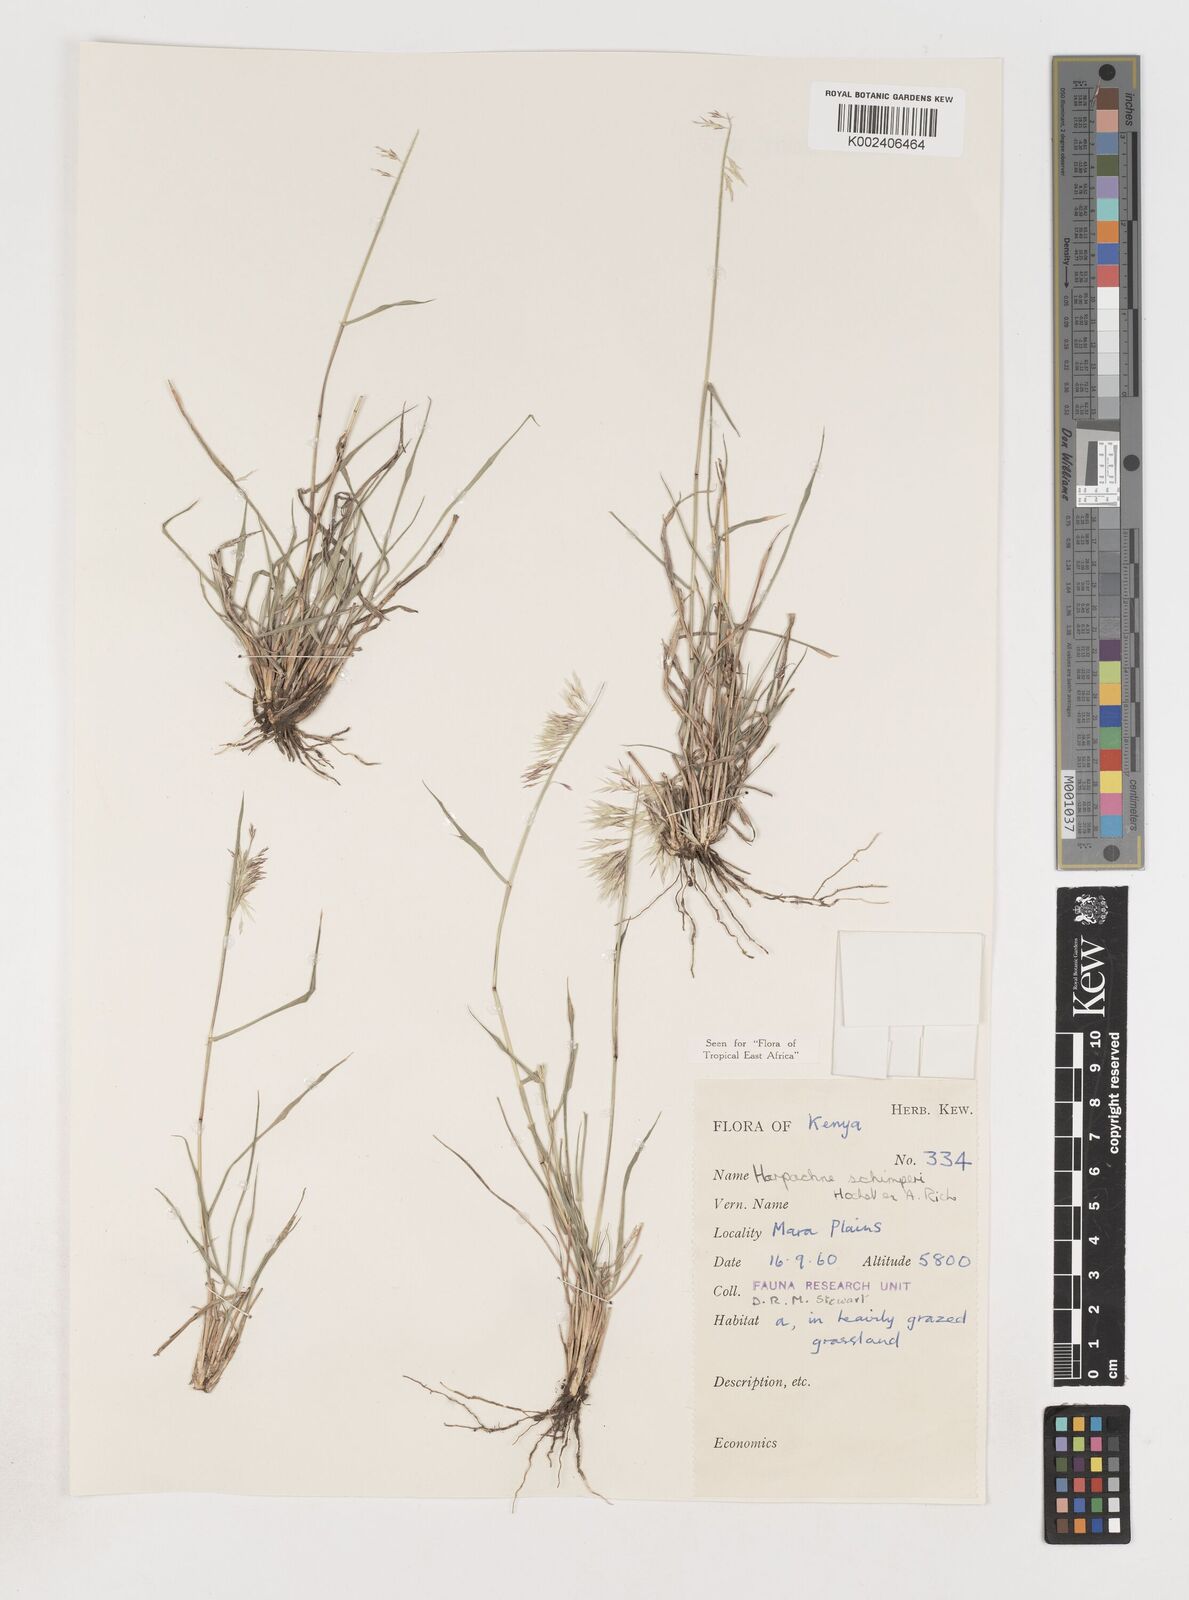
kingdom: Plantae
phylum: Tracheophyta
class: Liliopsida
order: Poales
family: Poaceae
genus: Harpachne
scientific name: Harpachne schimperi
